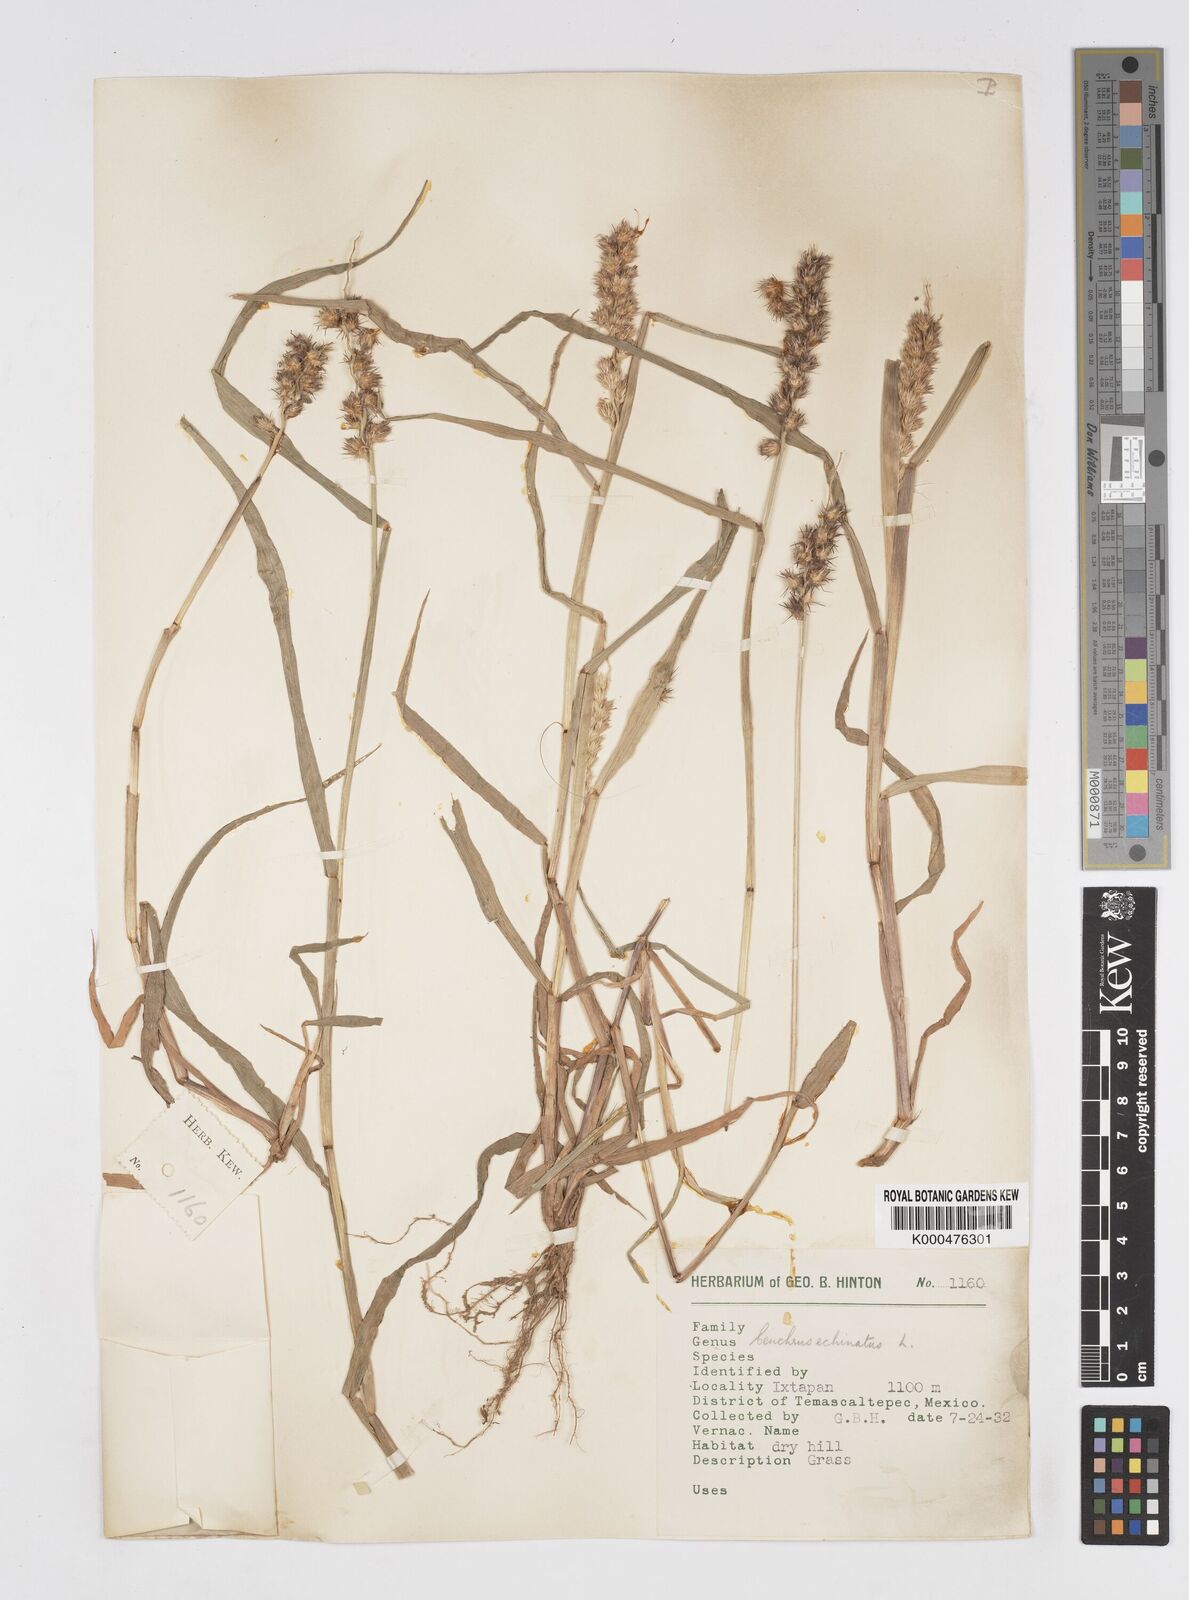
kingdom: Plantae
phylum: Tracheophyta
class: Liliopsida
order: Poales
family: Poaceae
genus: Cenchrus
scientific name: Cenchrus echinatus
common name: Southern sandbur
